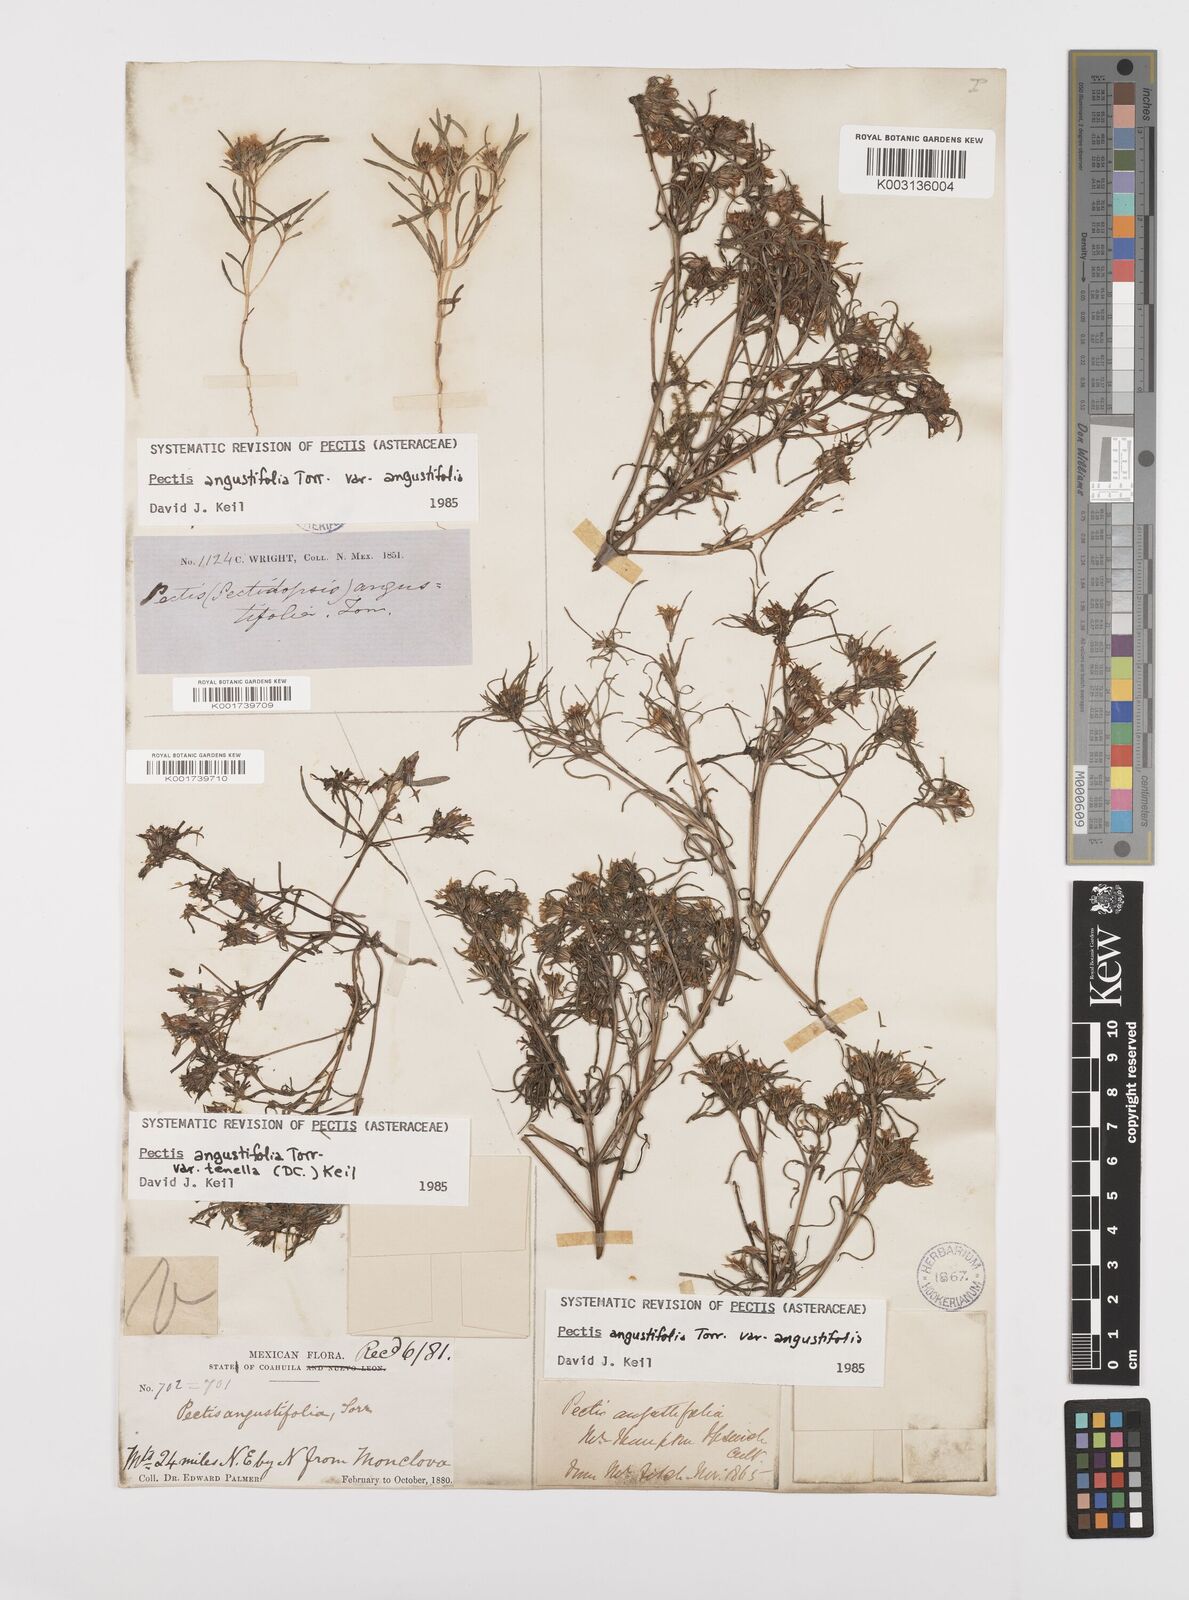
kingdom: Plantae
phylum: Tracheophyta
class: Magnoliopsida
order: Asterales
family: Asteraceae
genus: Pectis
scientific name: Pectis angustifolia
